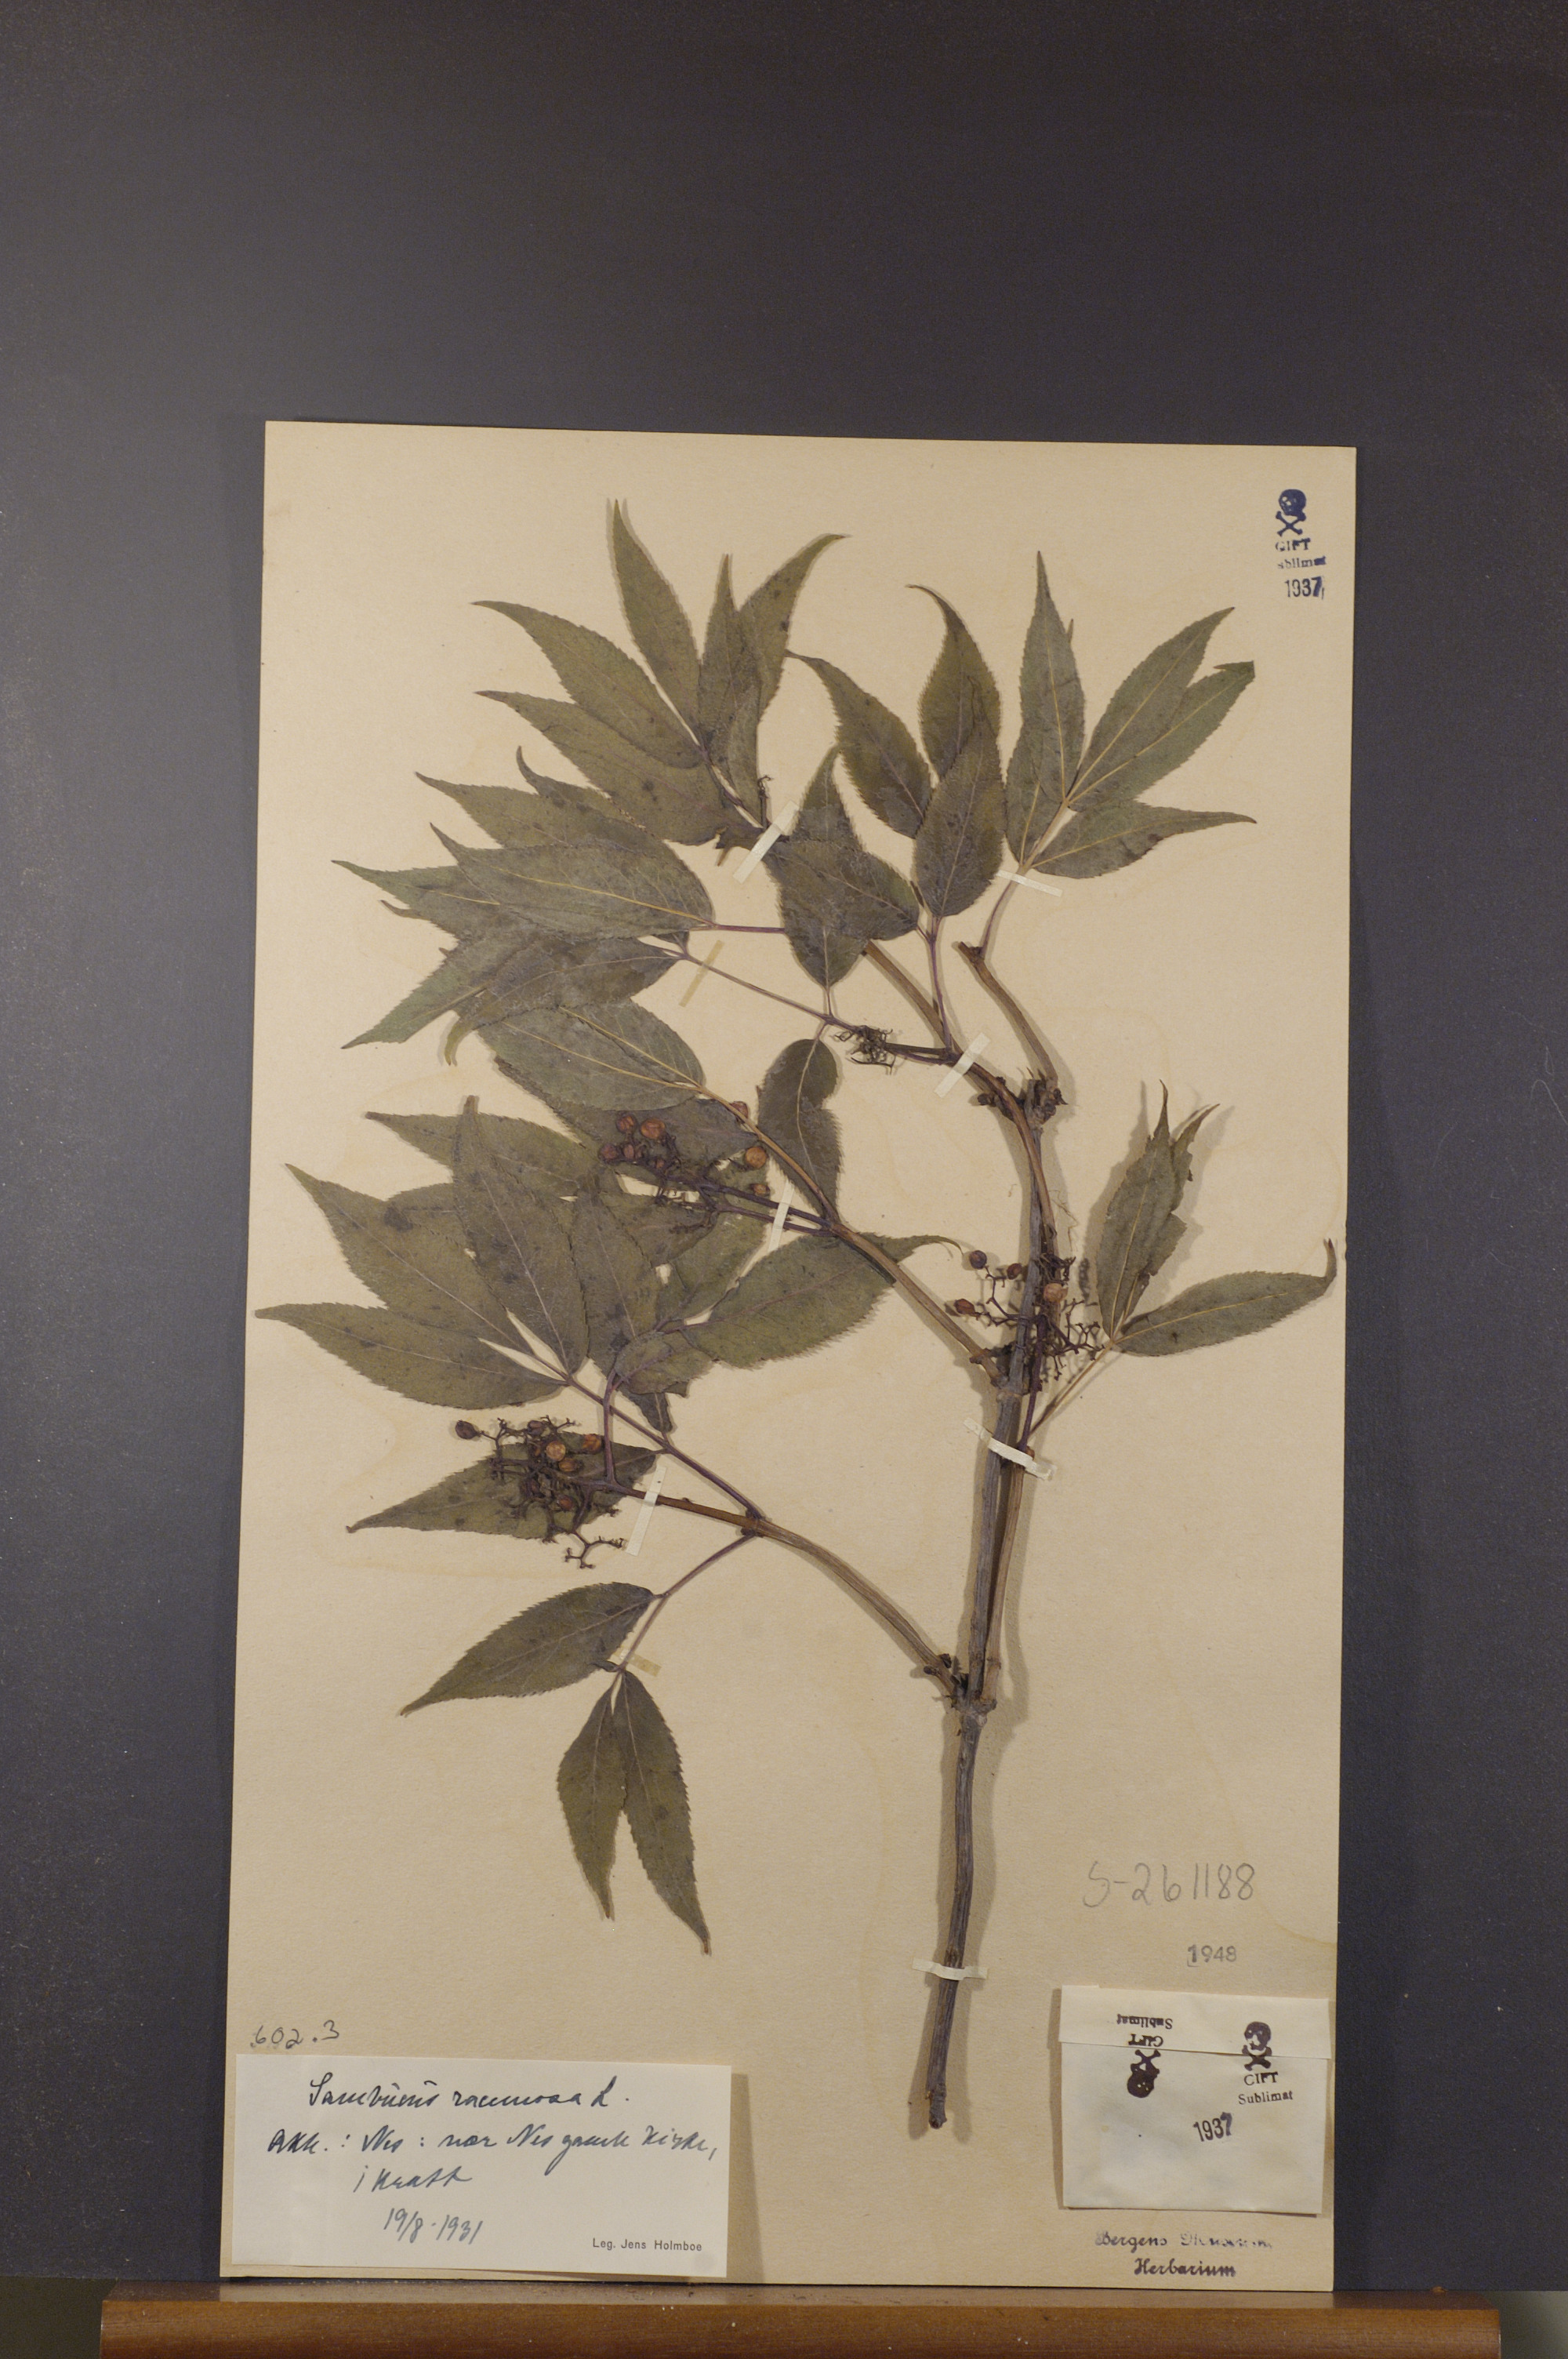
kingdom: Plantae
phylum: Tracheophyta
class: Magnoliopsida
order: Dipsacales
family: Viburnaceae
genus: Sambucus
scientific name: Sambucus racemosa
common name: Red-berried elder
